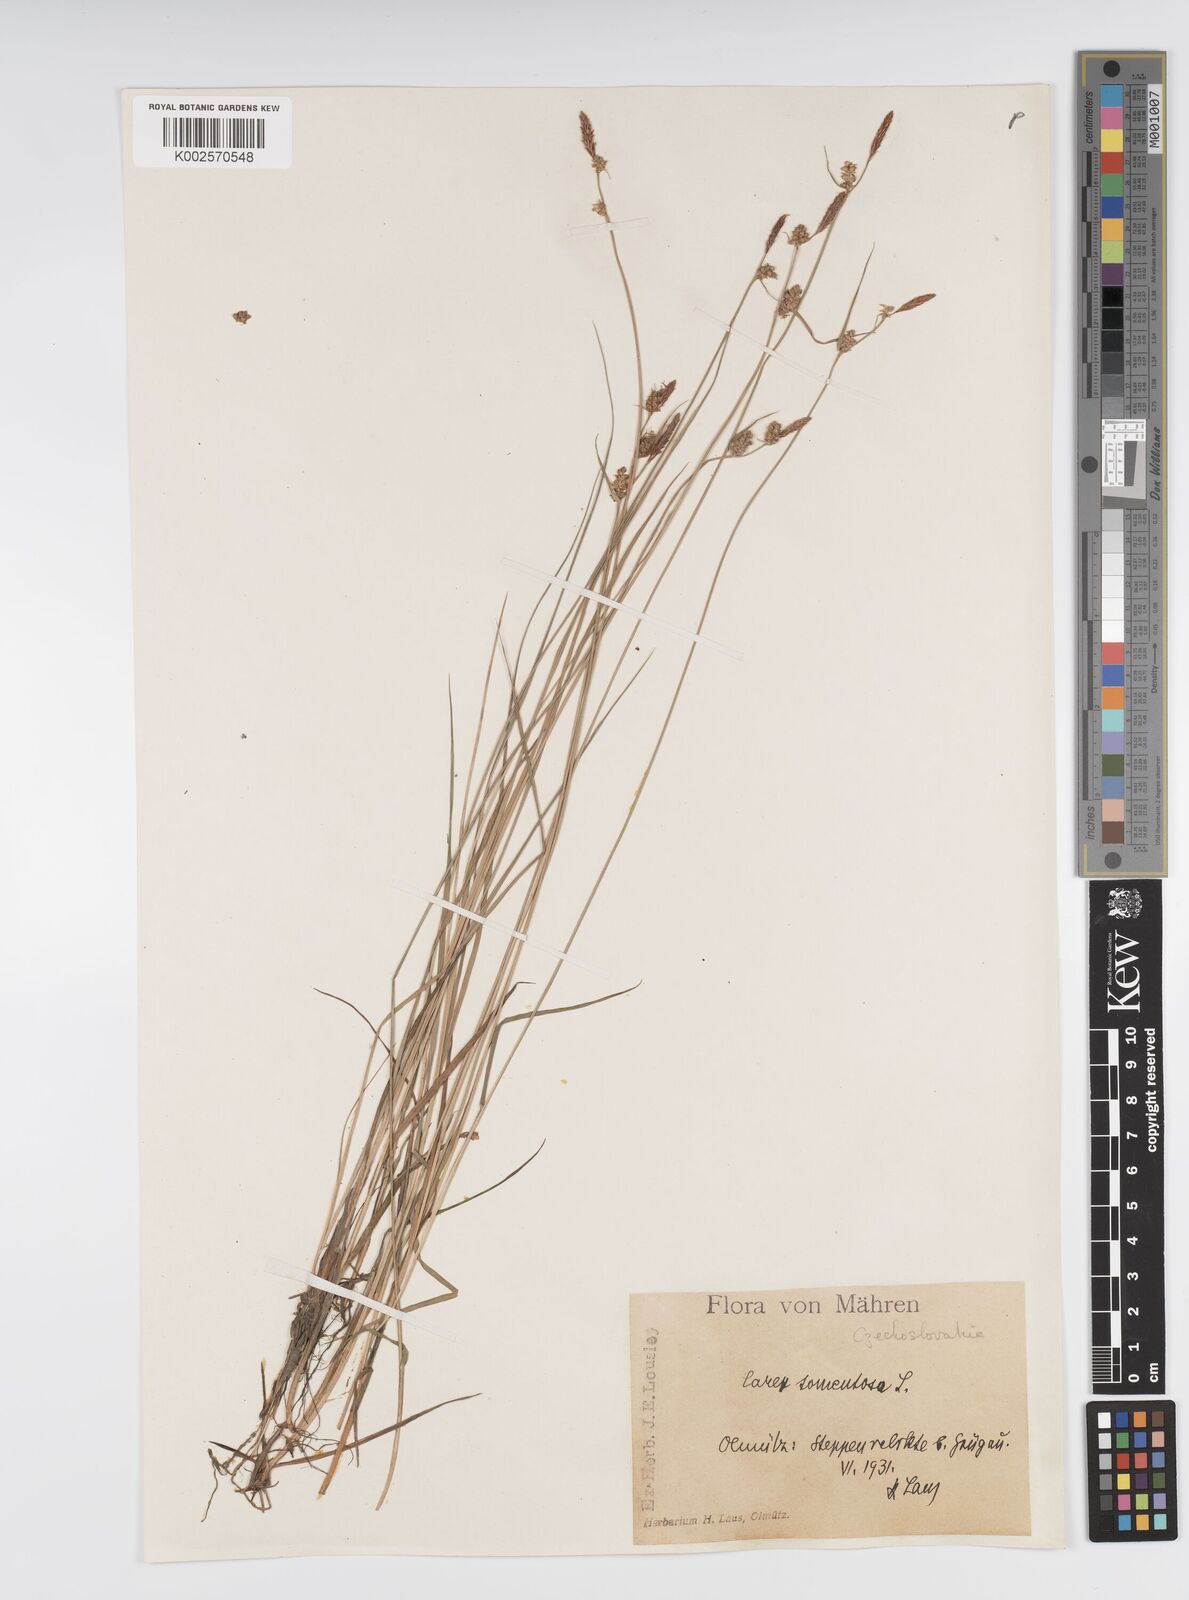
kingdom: Plantae
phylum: Tracheophyta
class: Liliopsida
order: Poales
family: Cyperaceae
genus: Carex
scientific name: Carex montana
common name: Soft-leaved sedge
